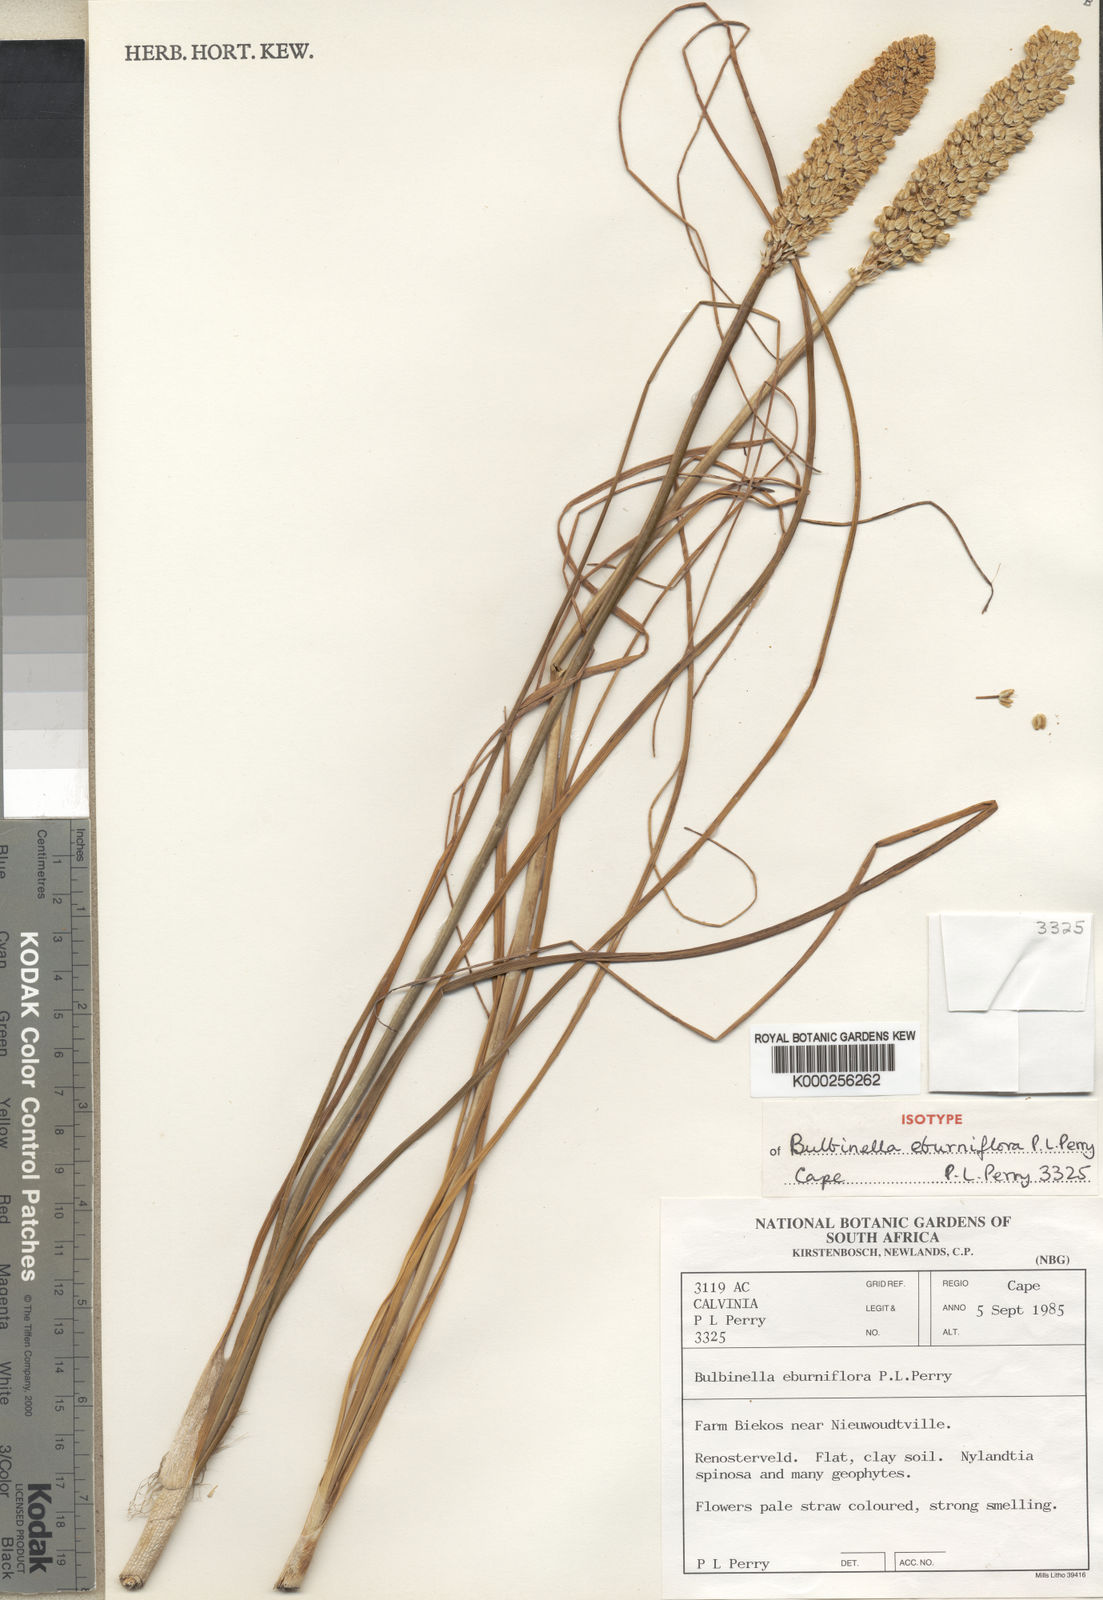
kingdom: Plantae
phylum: Tracheophyta
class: Liliopsida
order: Asparagales
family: Asphodelaceae
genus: Bulbinella
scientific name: Bulbinella eburniflora
